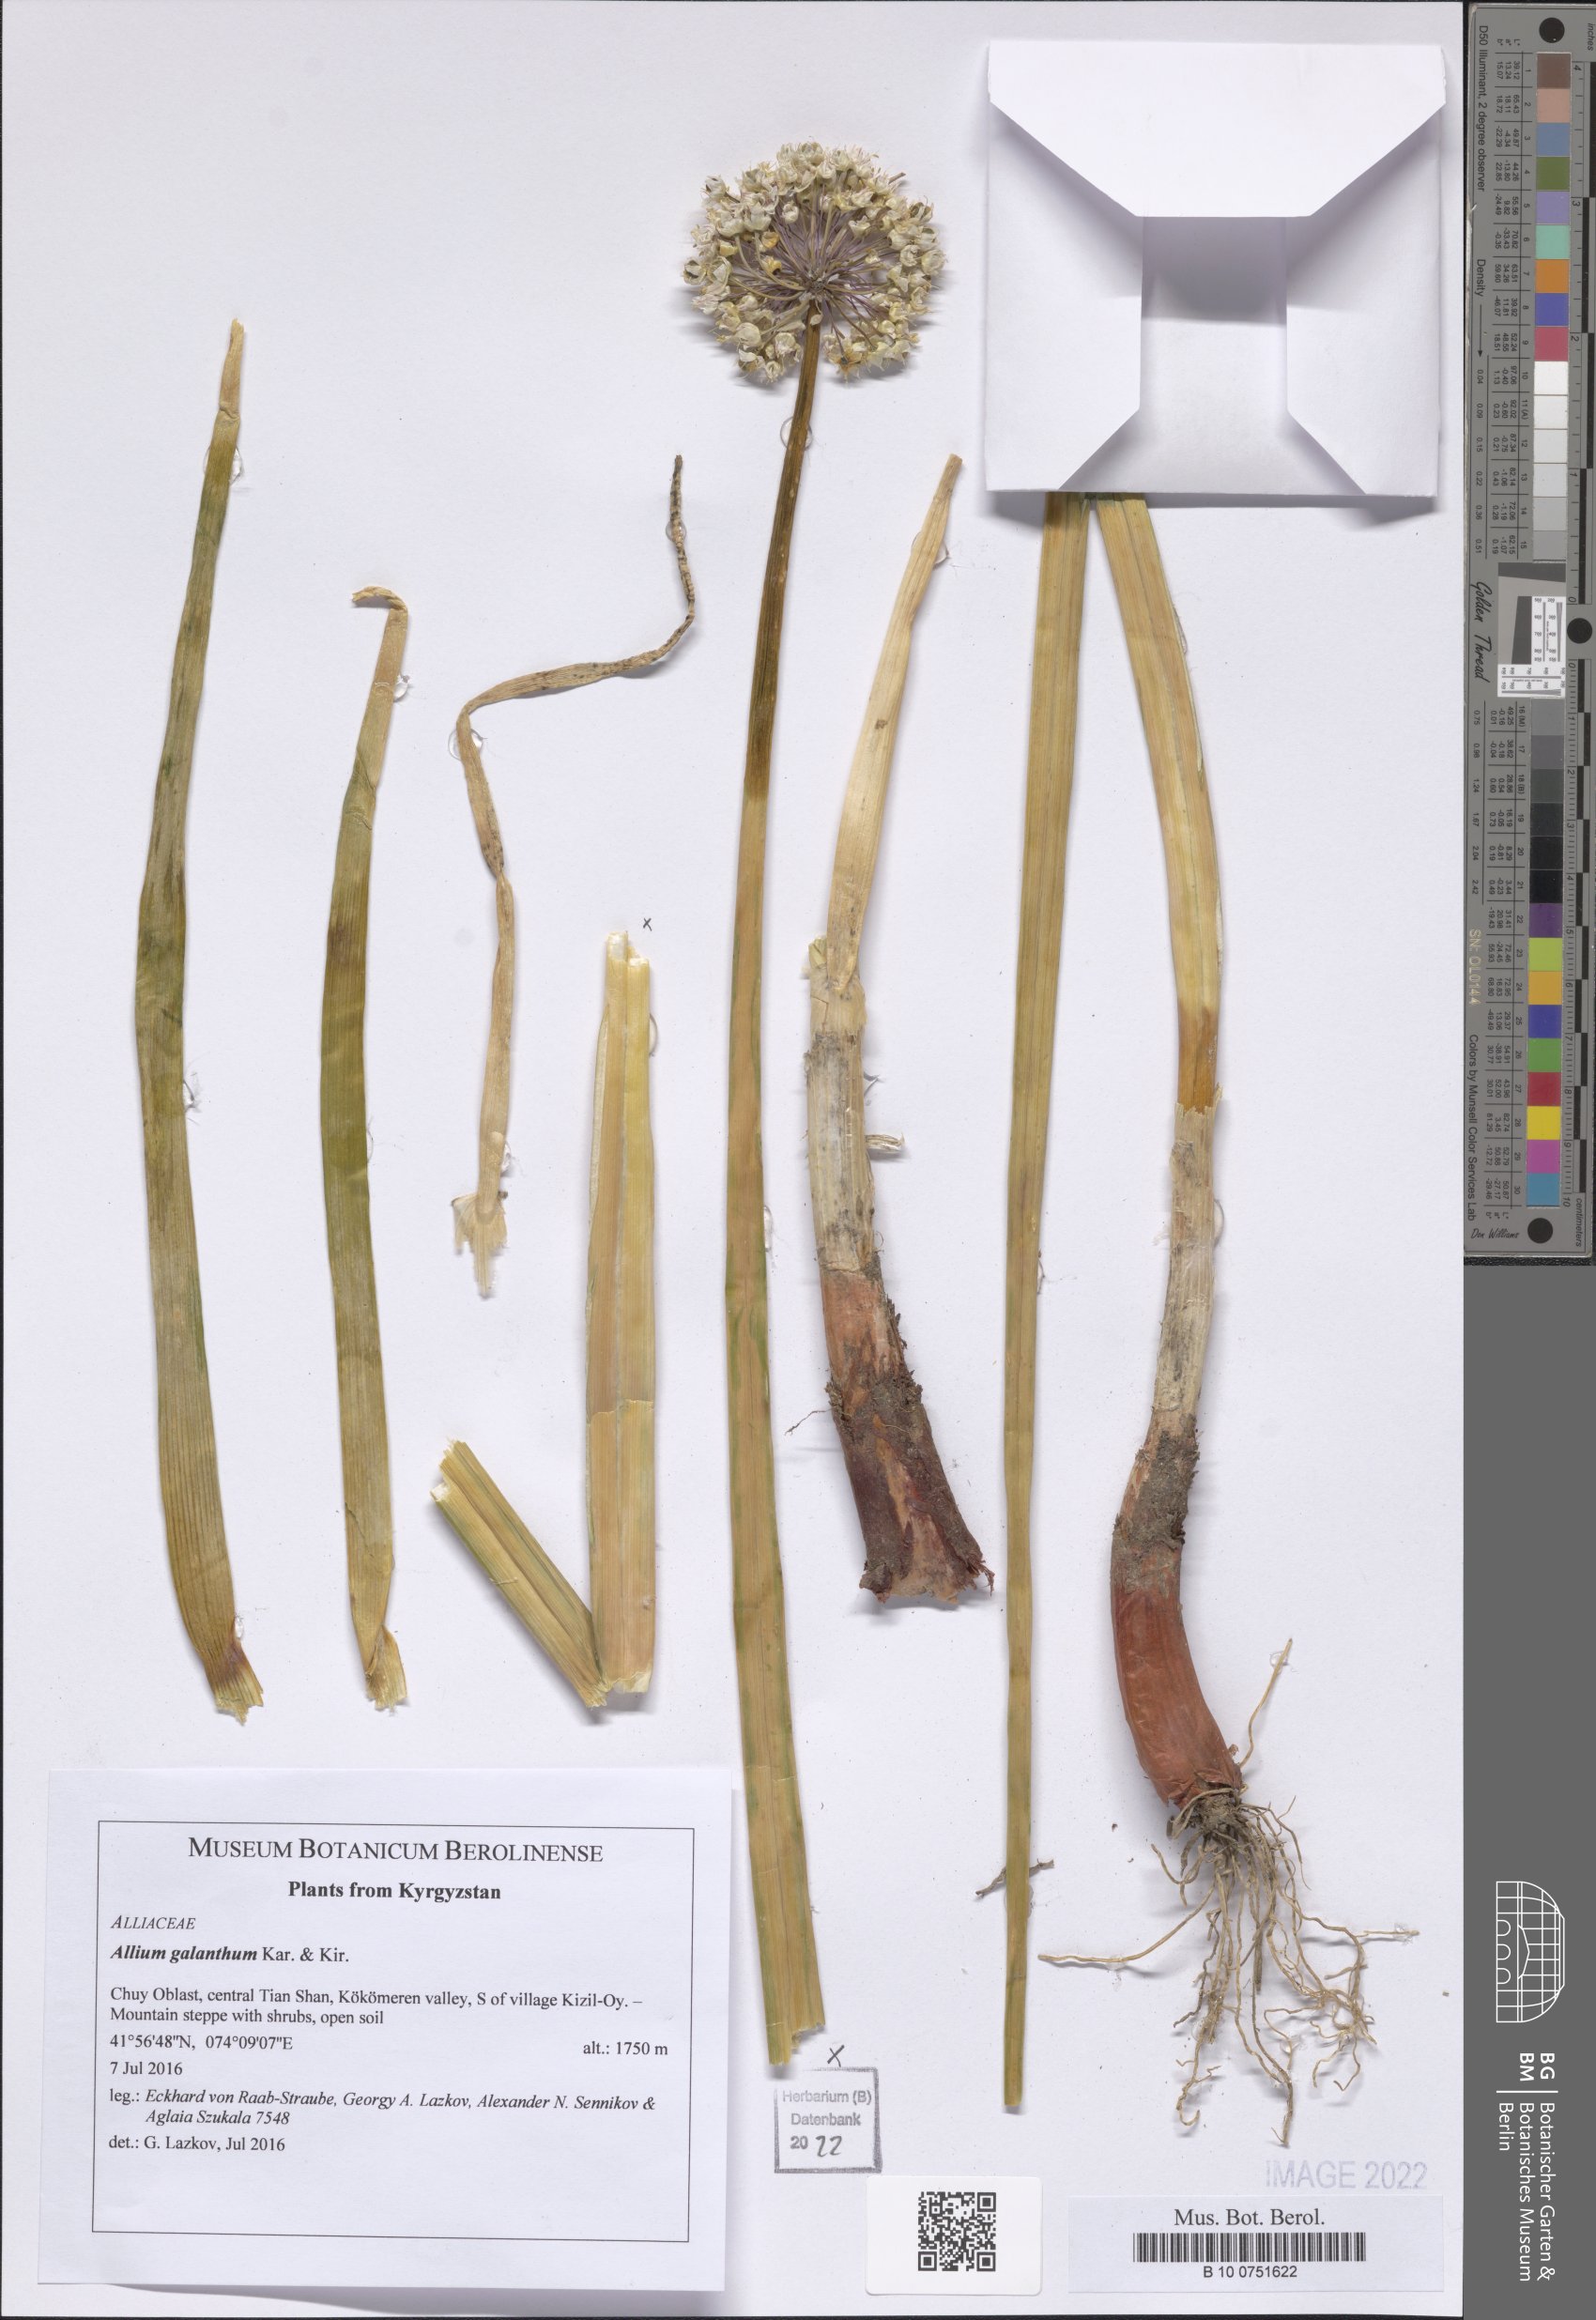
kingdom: Plantae
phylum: Tracheophyta
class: Liliopsida
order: Asparagales
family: Amaryllidaceae
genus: Allium
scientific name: Allium galanthum
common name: Snowdrop onion
